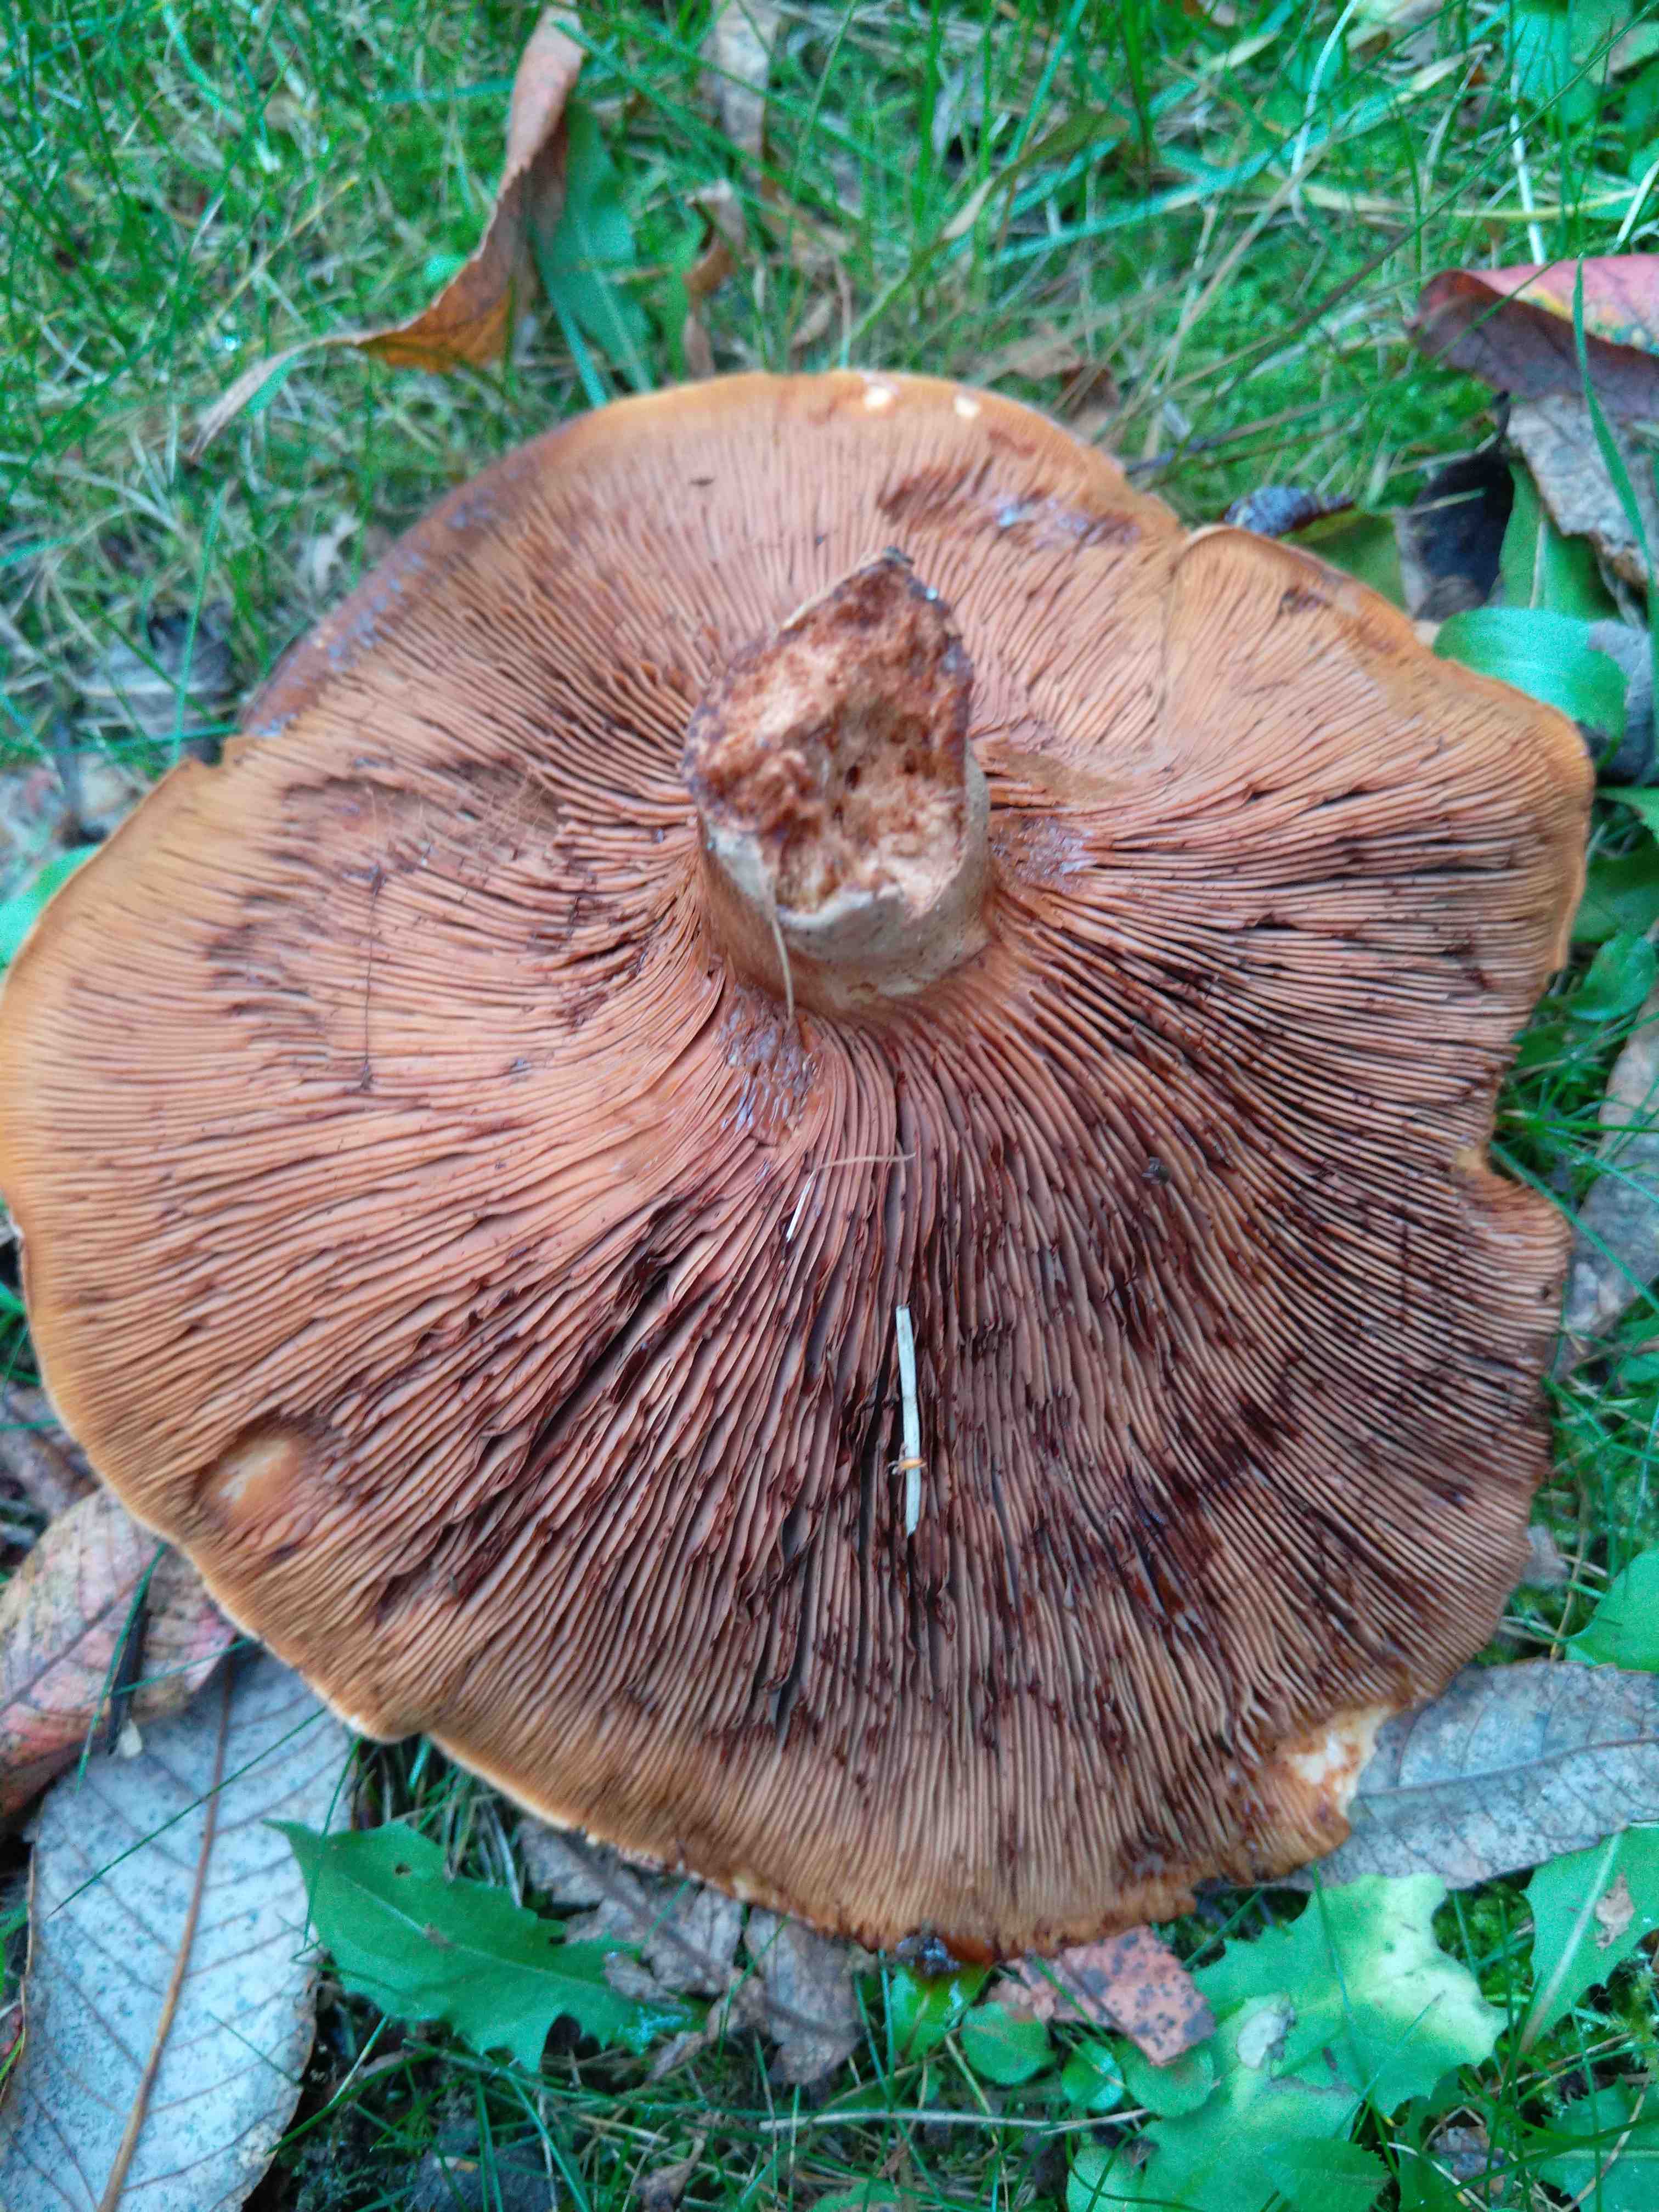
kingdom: Fungi
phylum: Basidiomycota
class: Agaricomycetes
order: Boletales
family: Paxillaceae
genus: Paxillus
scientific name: Paxillus
